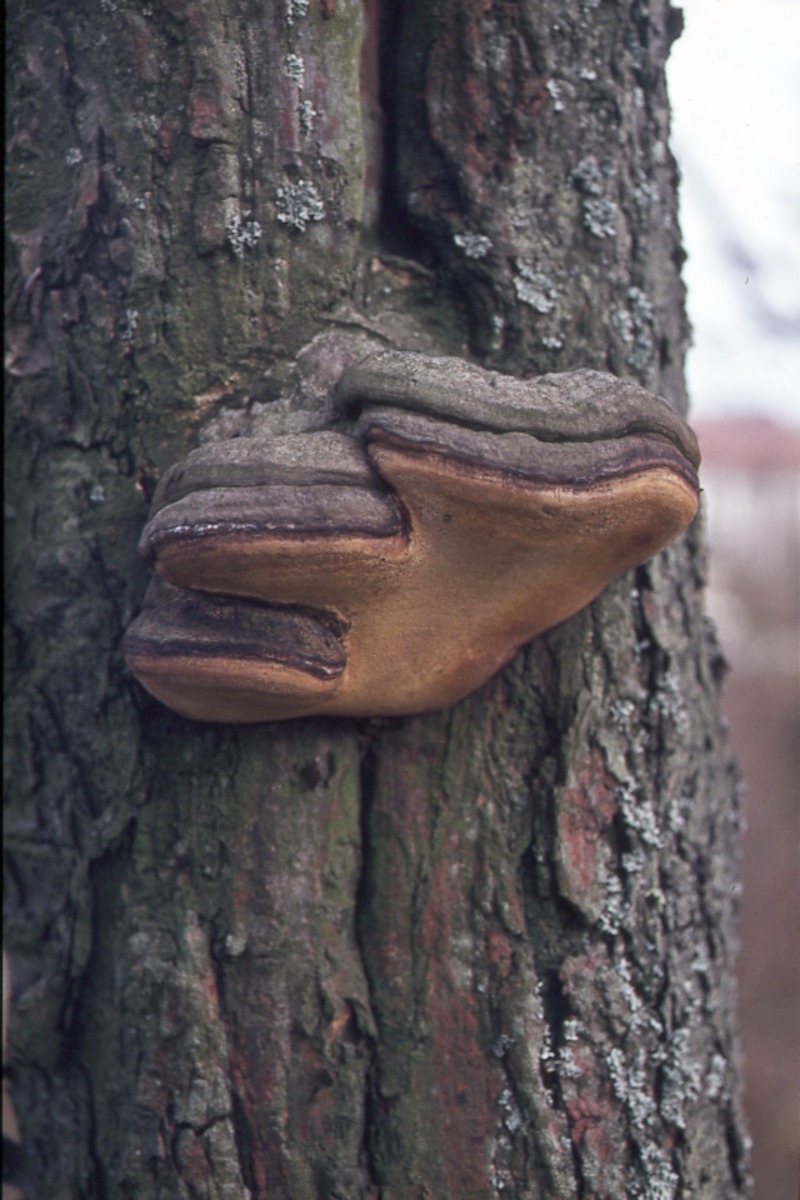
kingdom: Fungi
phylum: Basidiomycota
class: Agaricomycetes
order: Hymenochaetales
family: Hymenochaetaceae
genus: Phellinus
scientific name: Phellinus pomaceus
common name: Cushion bracket
